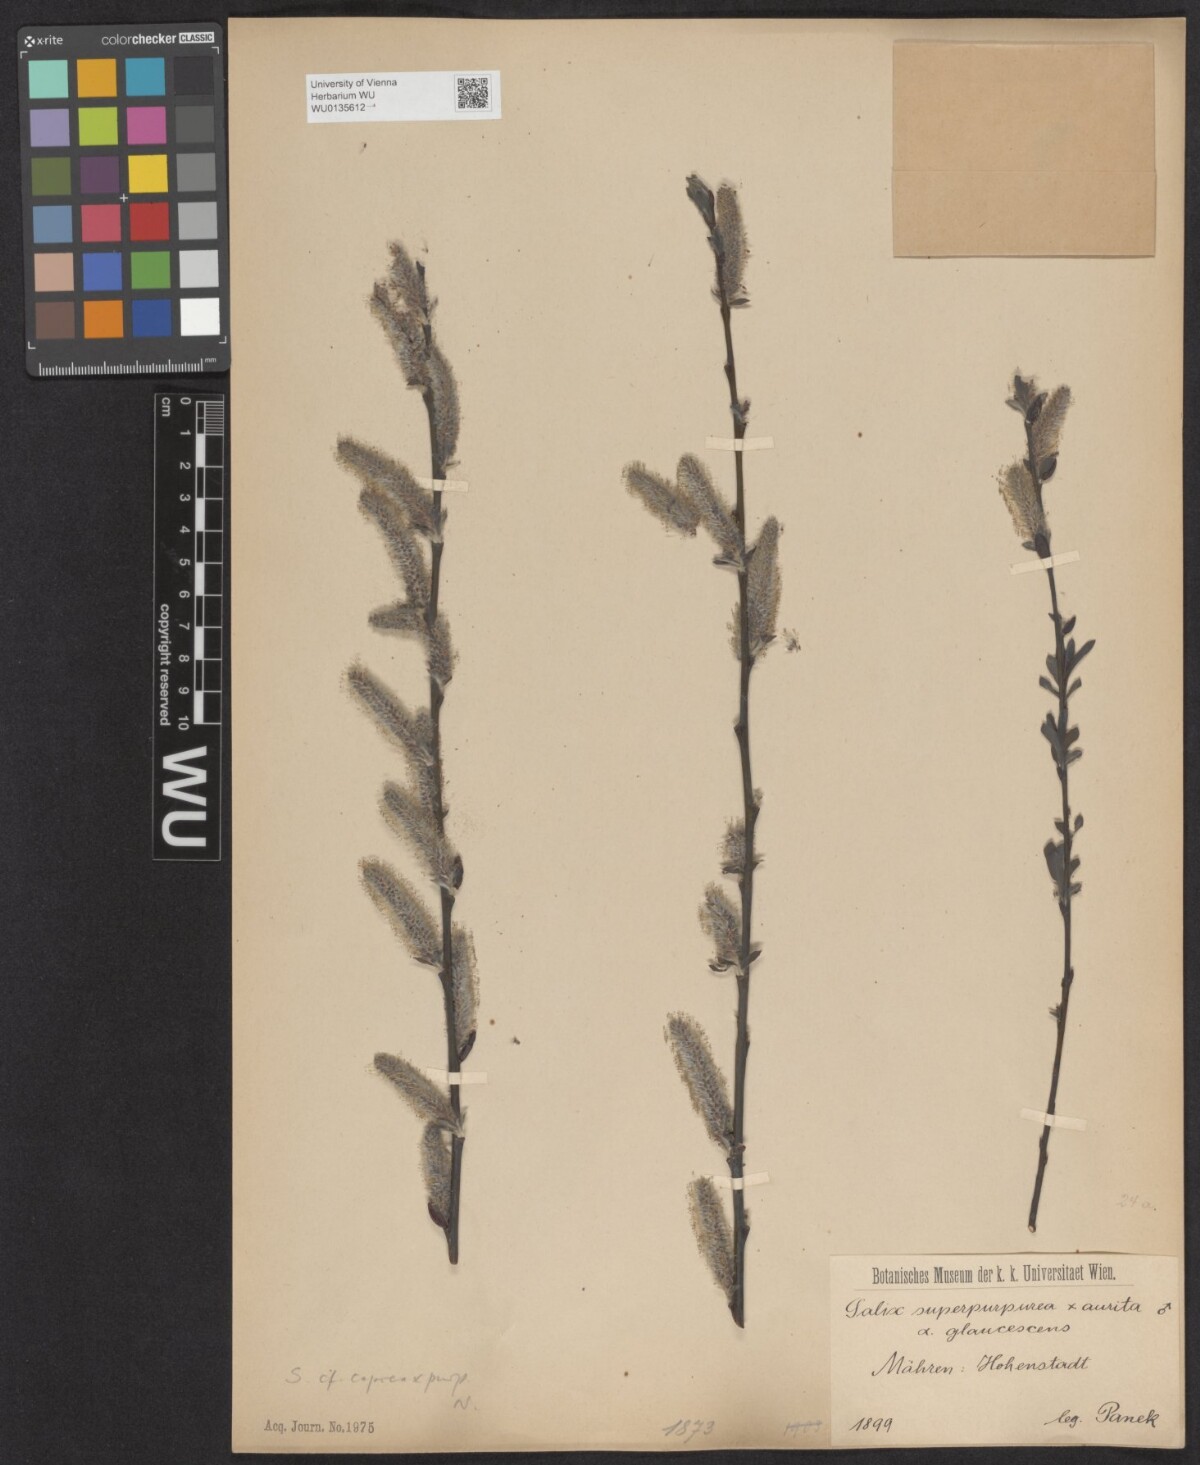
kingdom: Plantae
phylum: Tracheophyta
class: Magnoliopsida
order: Malpighiales
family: Salicaceae
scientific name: Salicaceae
